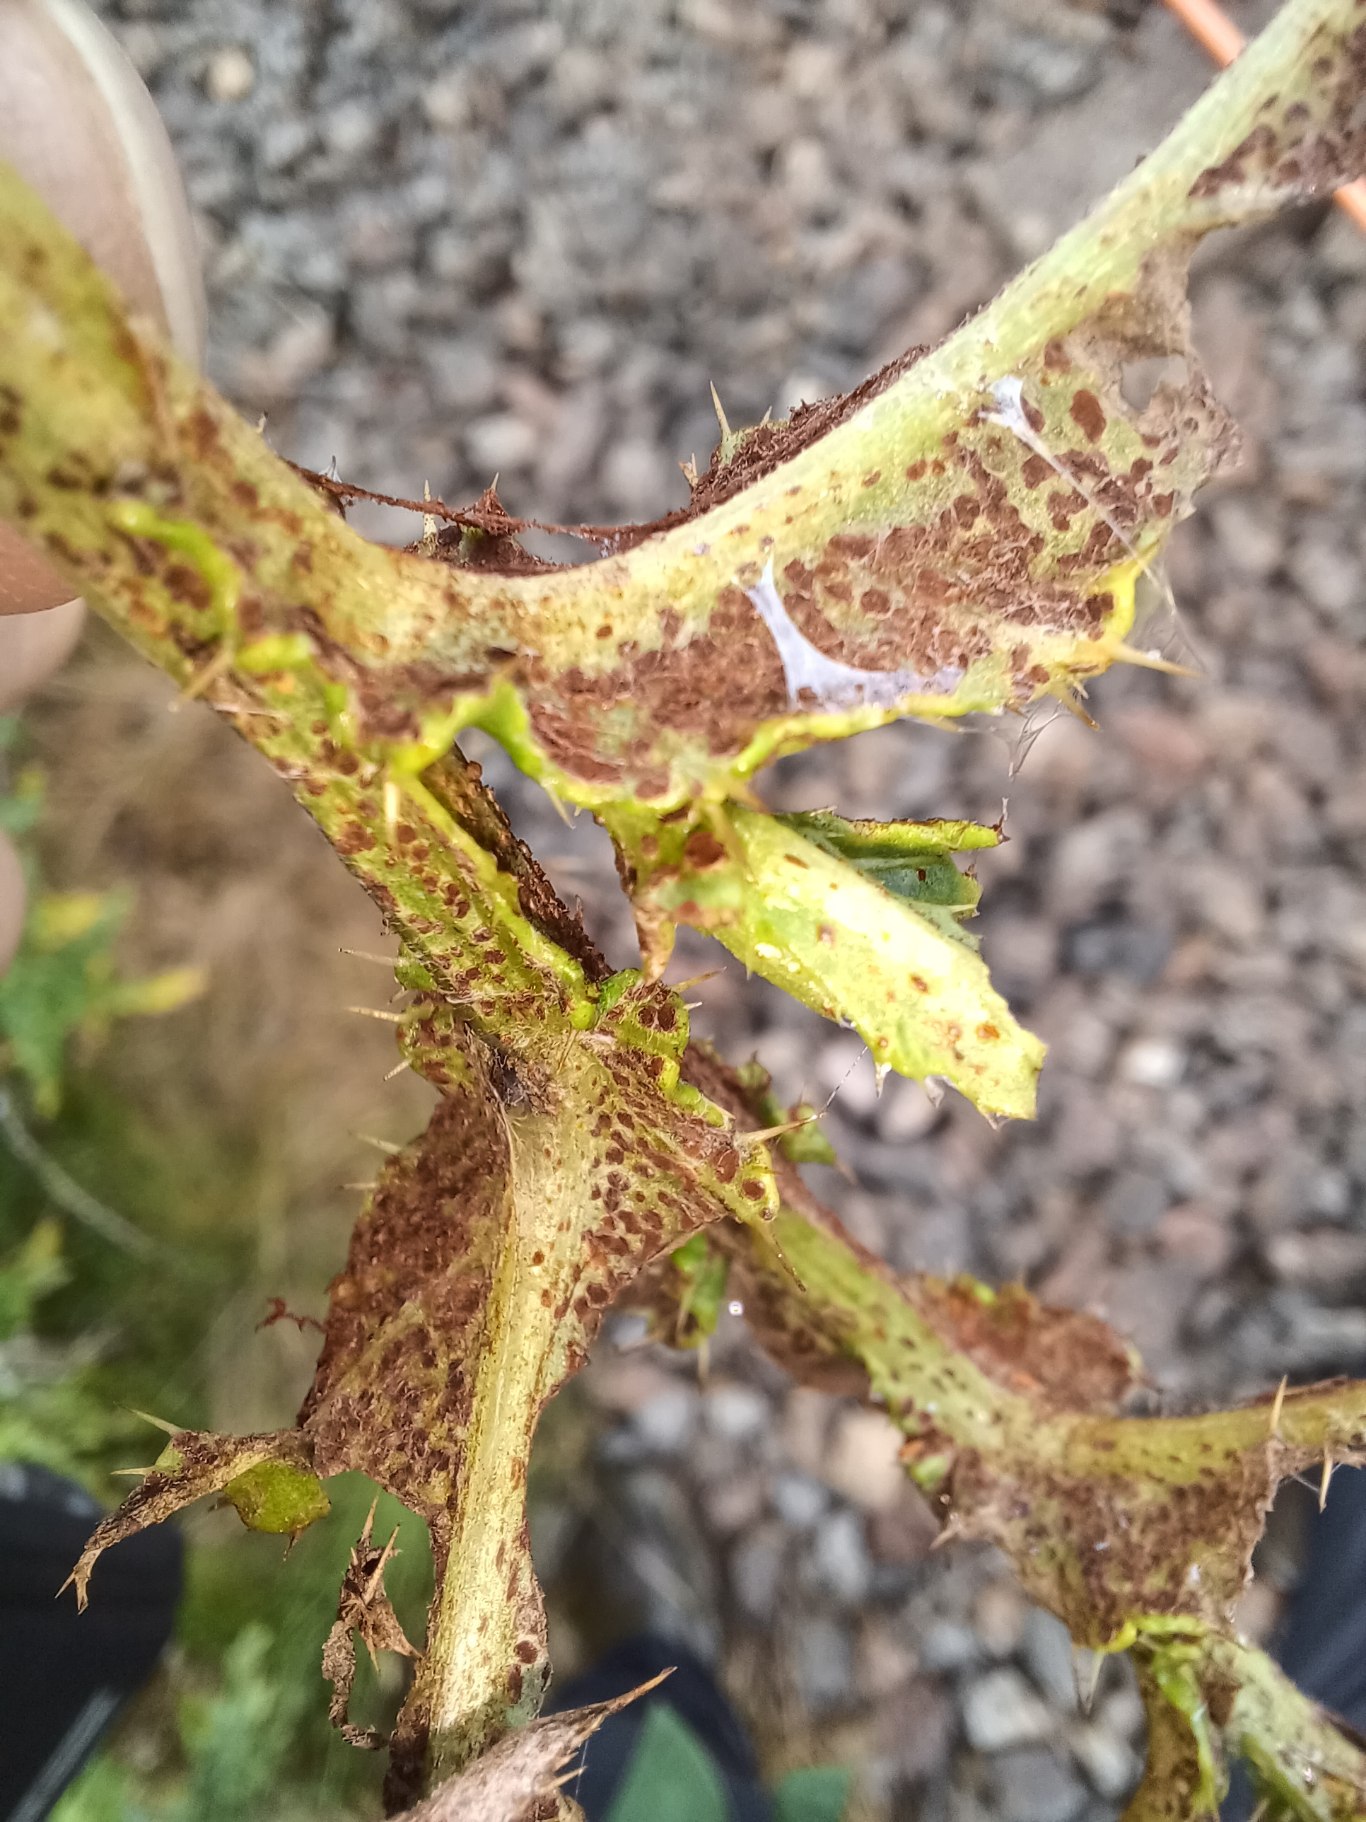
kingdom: Fungi
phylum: Basidiomycota
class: Pucciniomycetes
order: Pucciniales
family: Pucciniaceae
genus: Puccinia
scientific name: Puccinia suaveolens
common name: Tidsel-tvecellerust
